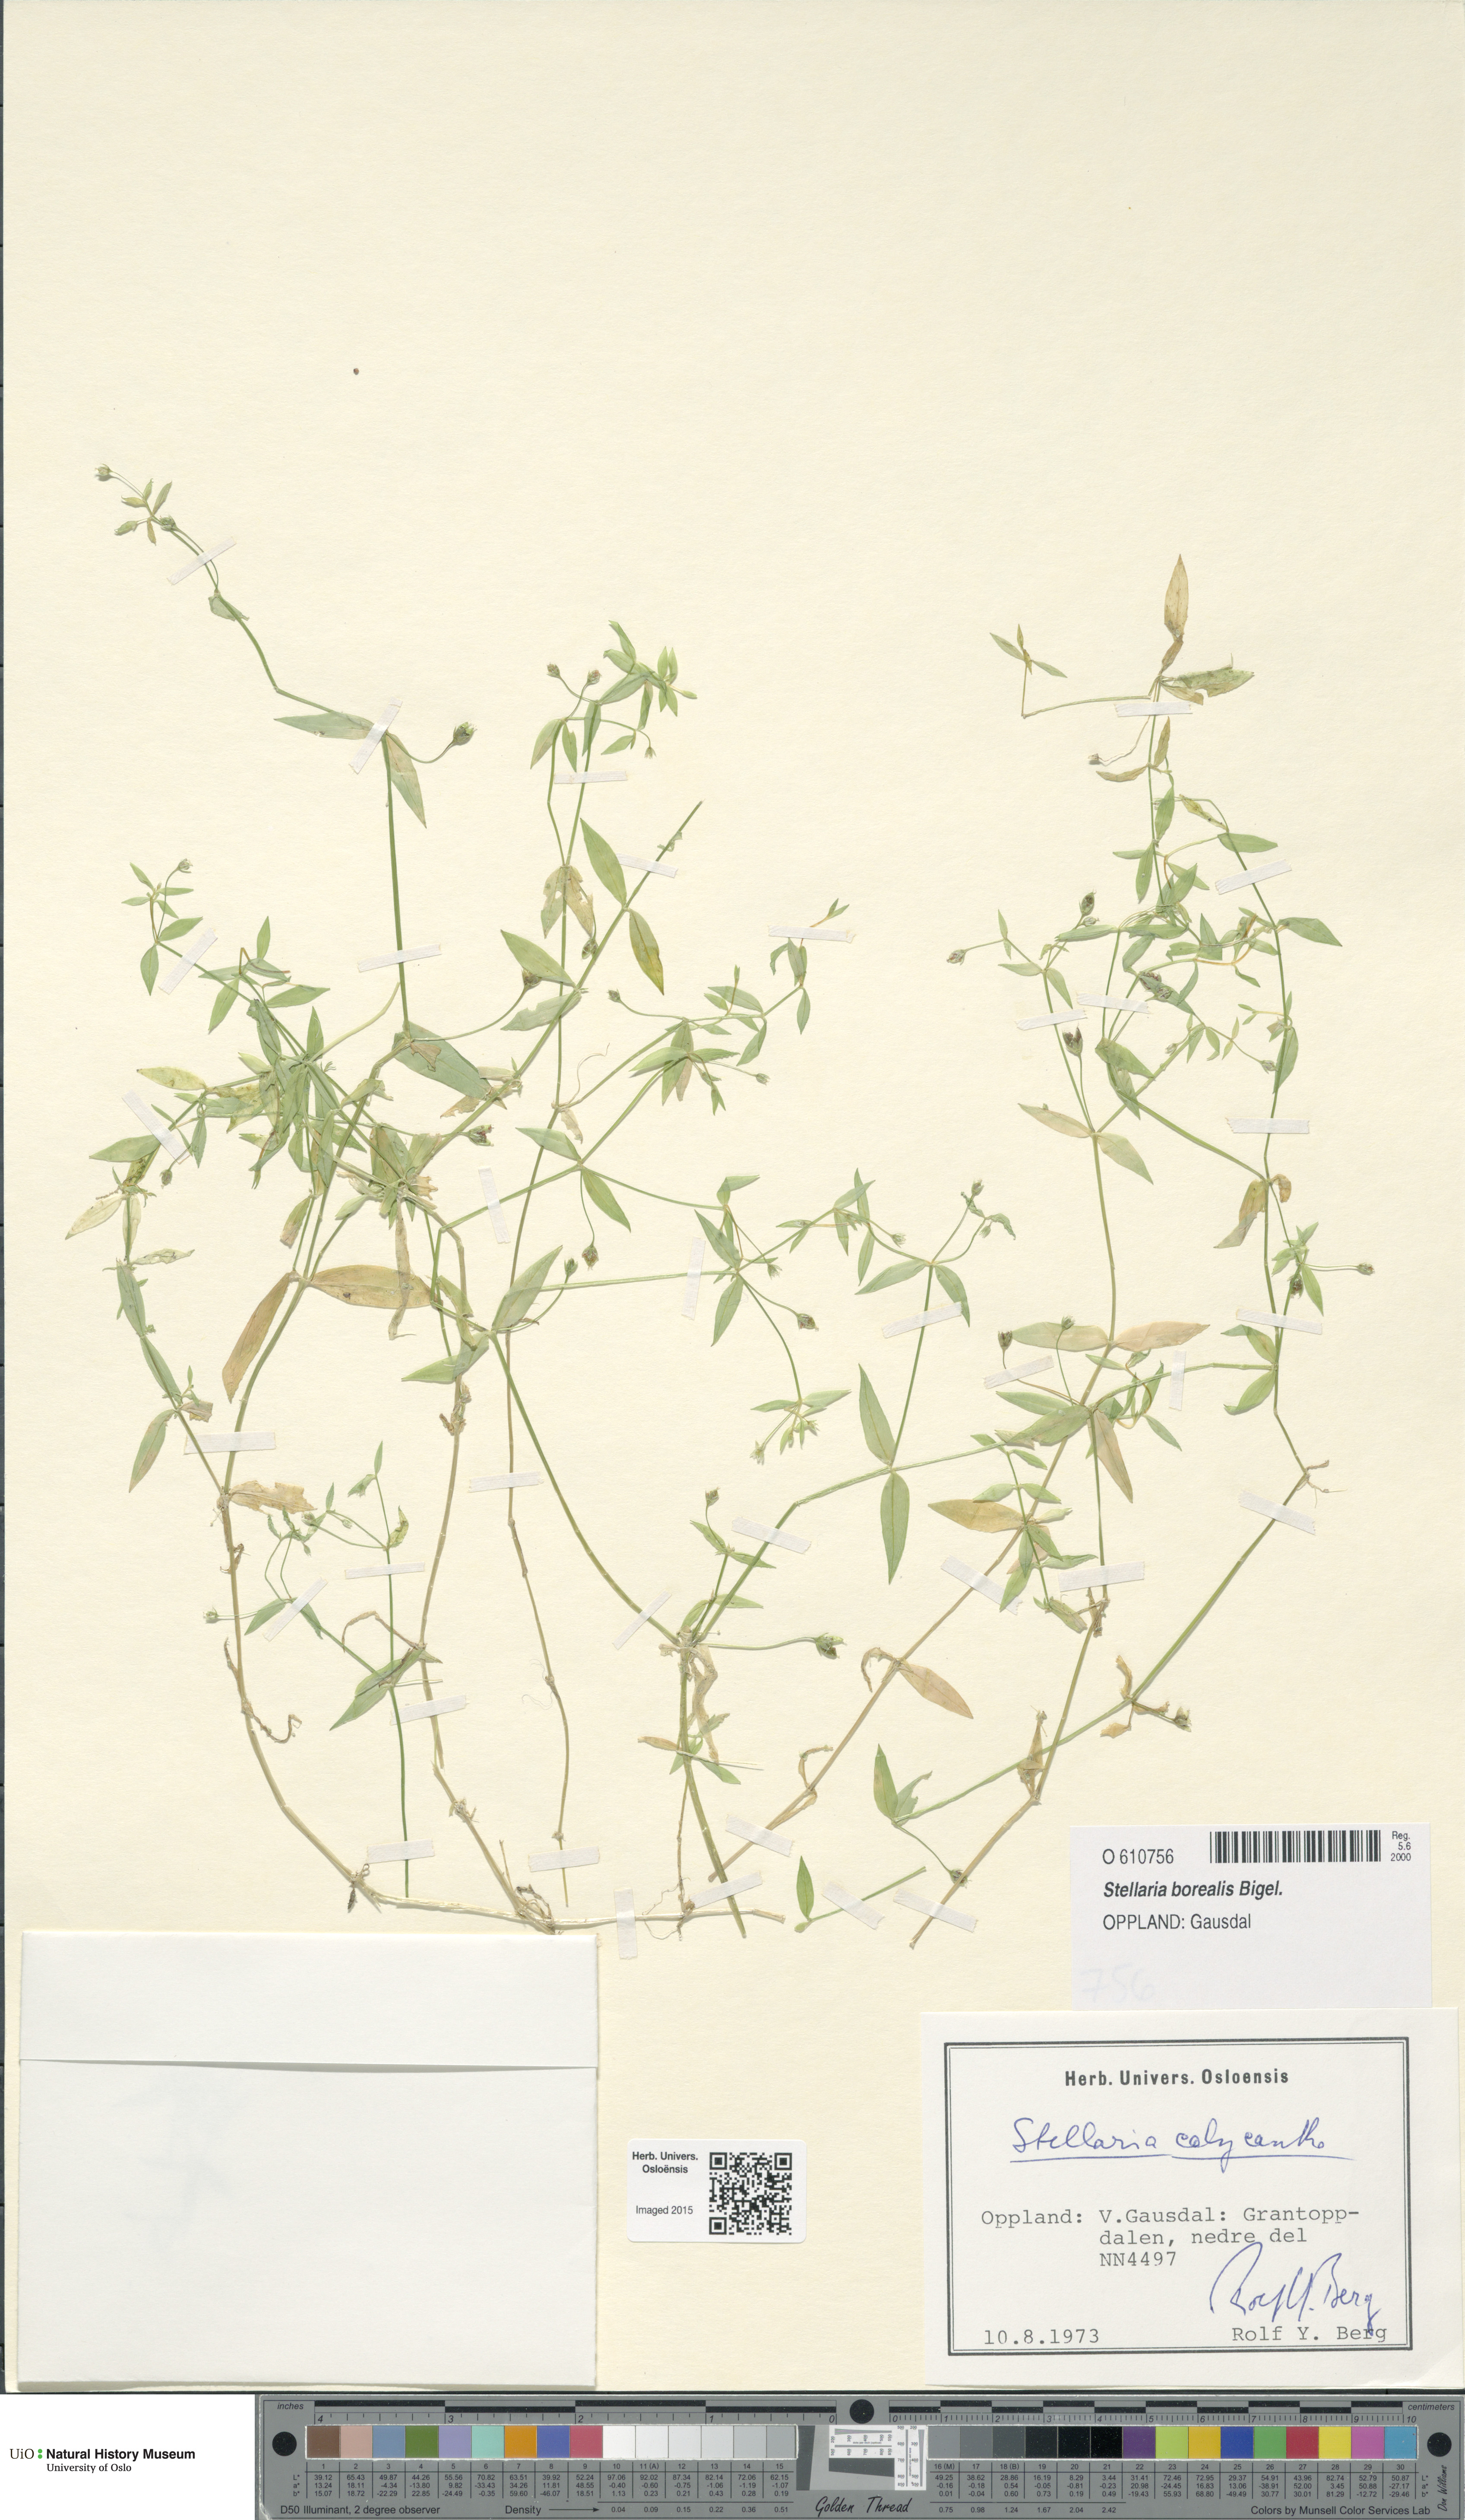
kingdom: Plantae
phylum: Tracheophyta
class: Magnoliopsida
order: Caryophyllales
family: Caryophyllaceae
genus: Stellaria
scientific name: Stellaria borealis
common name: Boreal starwort
